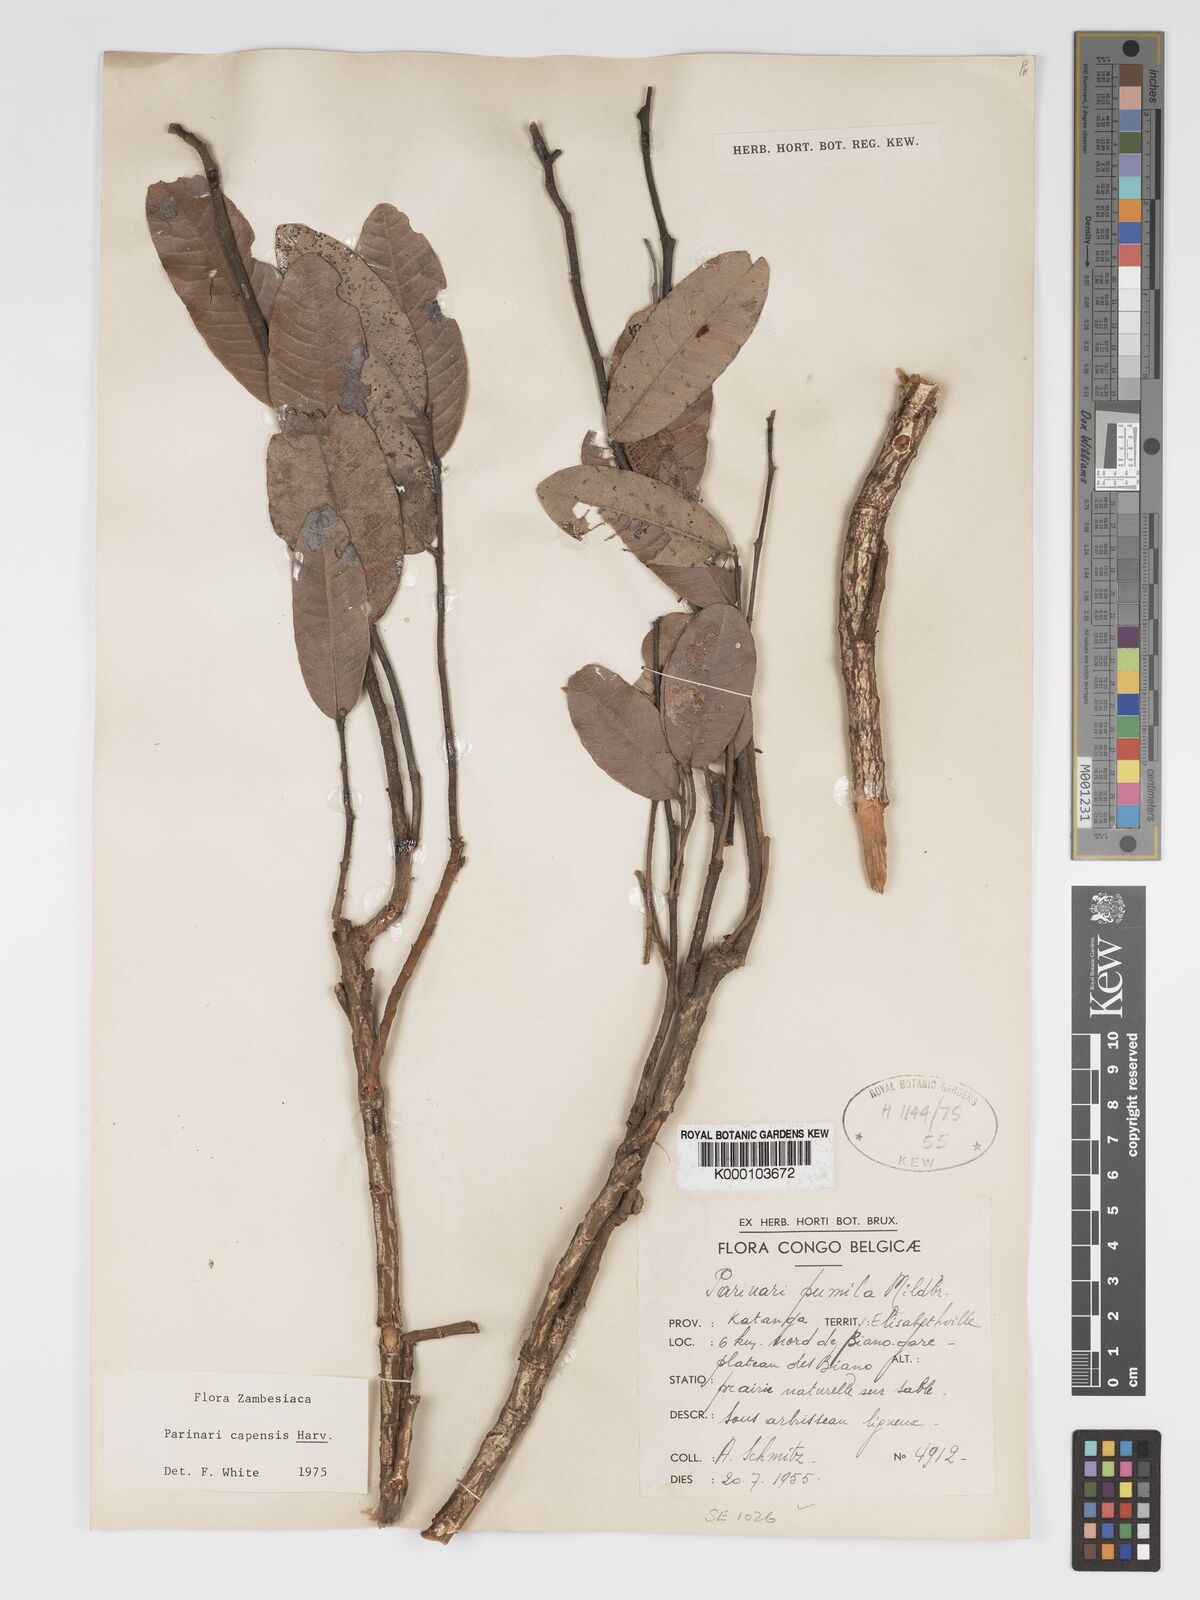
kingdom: Plantae
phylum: Tracheophyta
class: Magnoliopsida
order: Malpighiales
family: Chrysobalanaceae
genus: Parinari
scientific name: Parinari capensis
